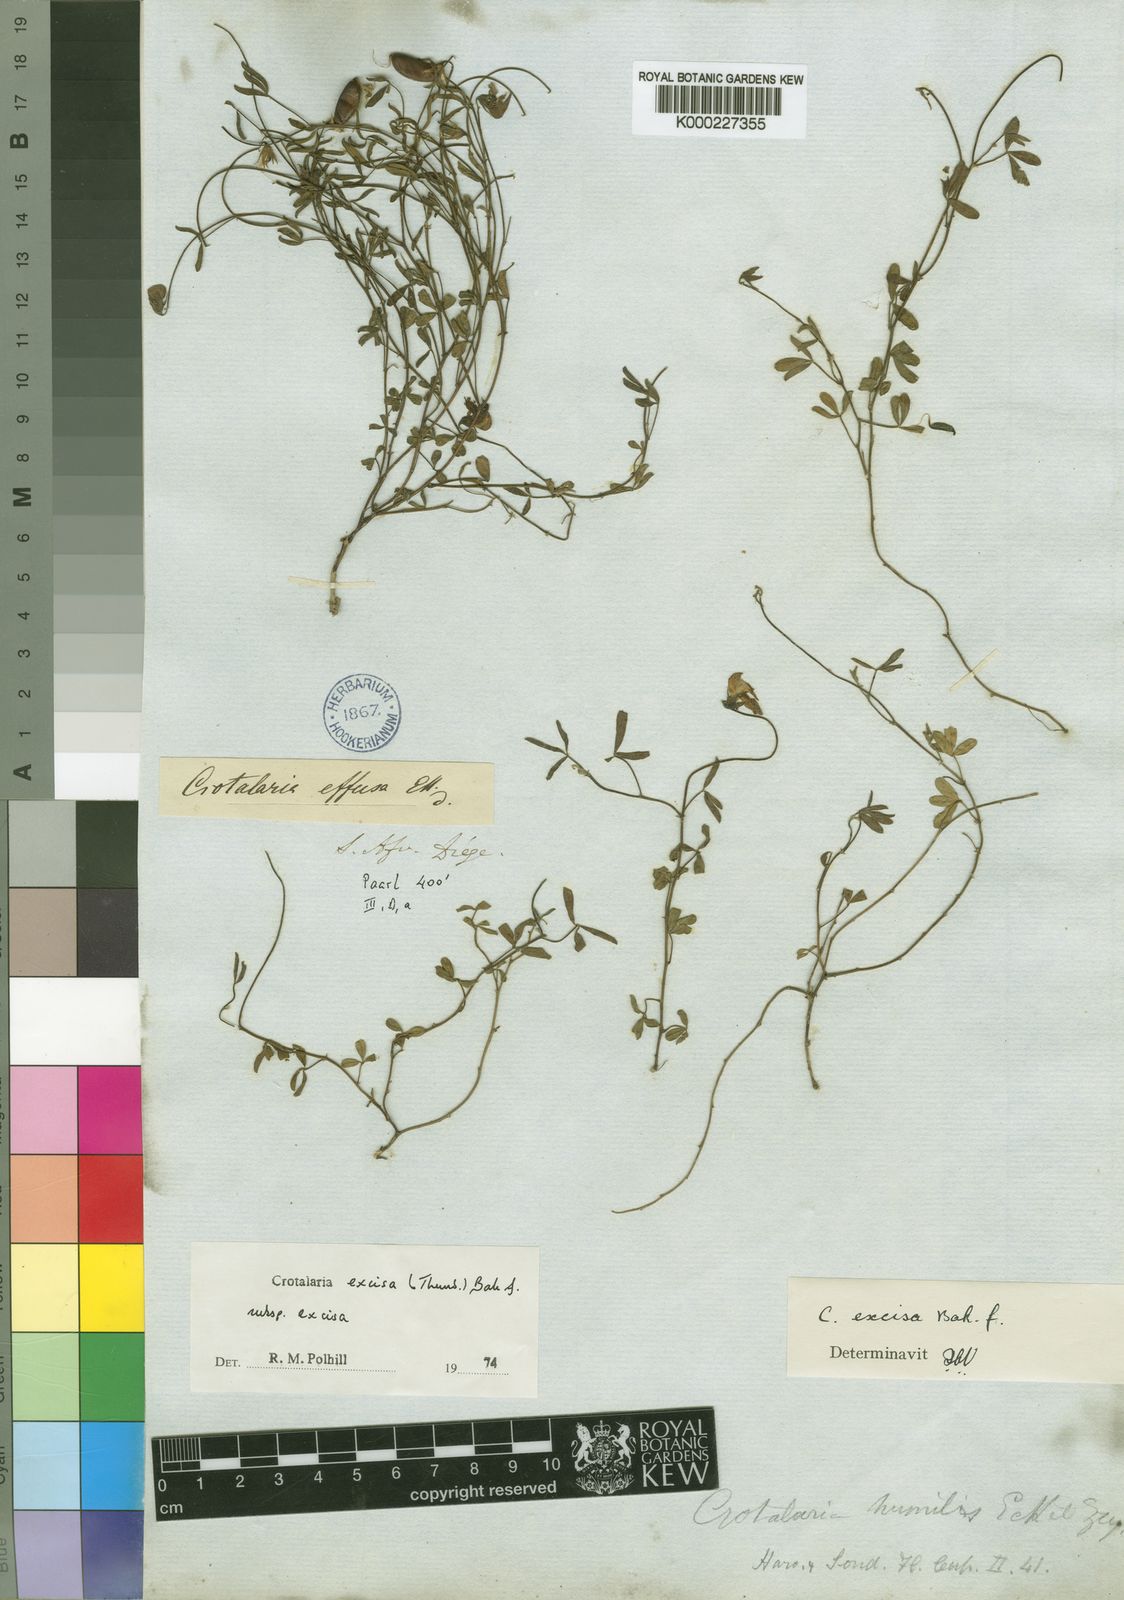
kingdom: Plantae
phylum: Tracheophyta
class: Magnoliopsida
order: Fabales
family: Fabaceae
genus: Crotalaria
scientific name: Crotalaria humilis
